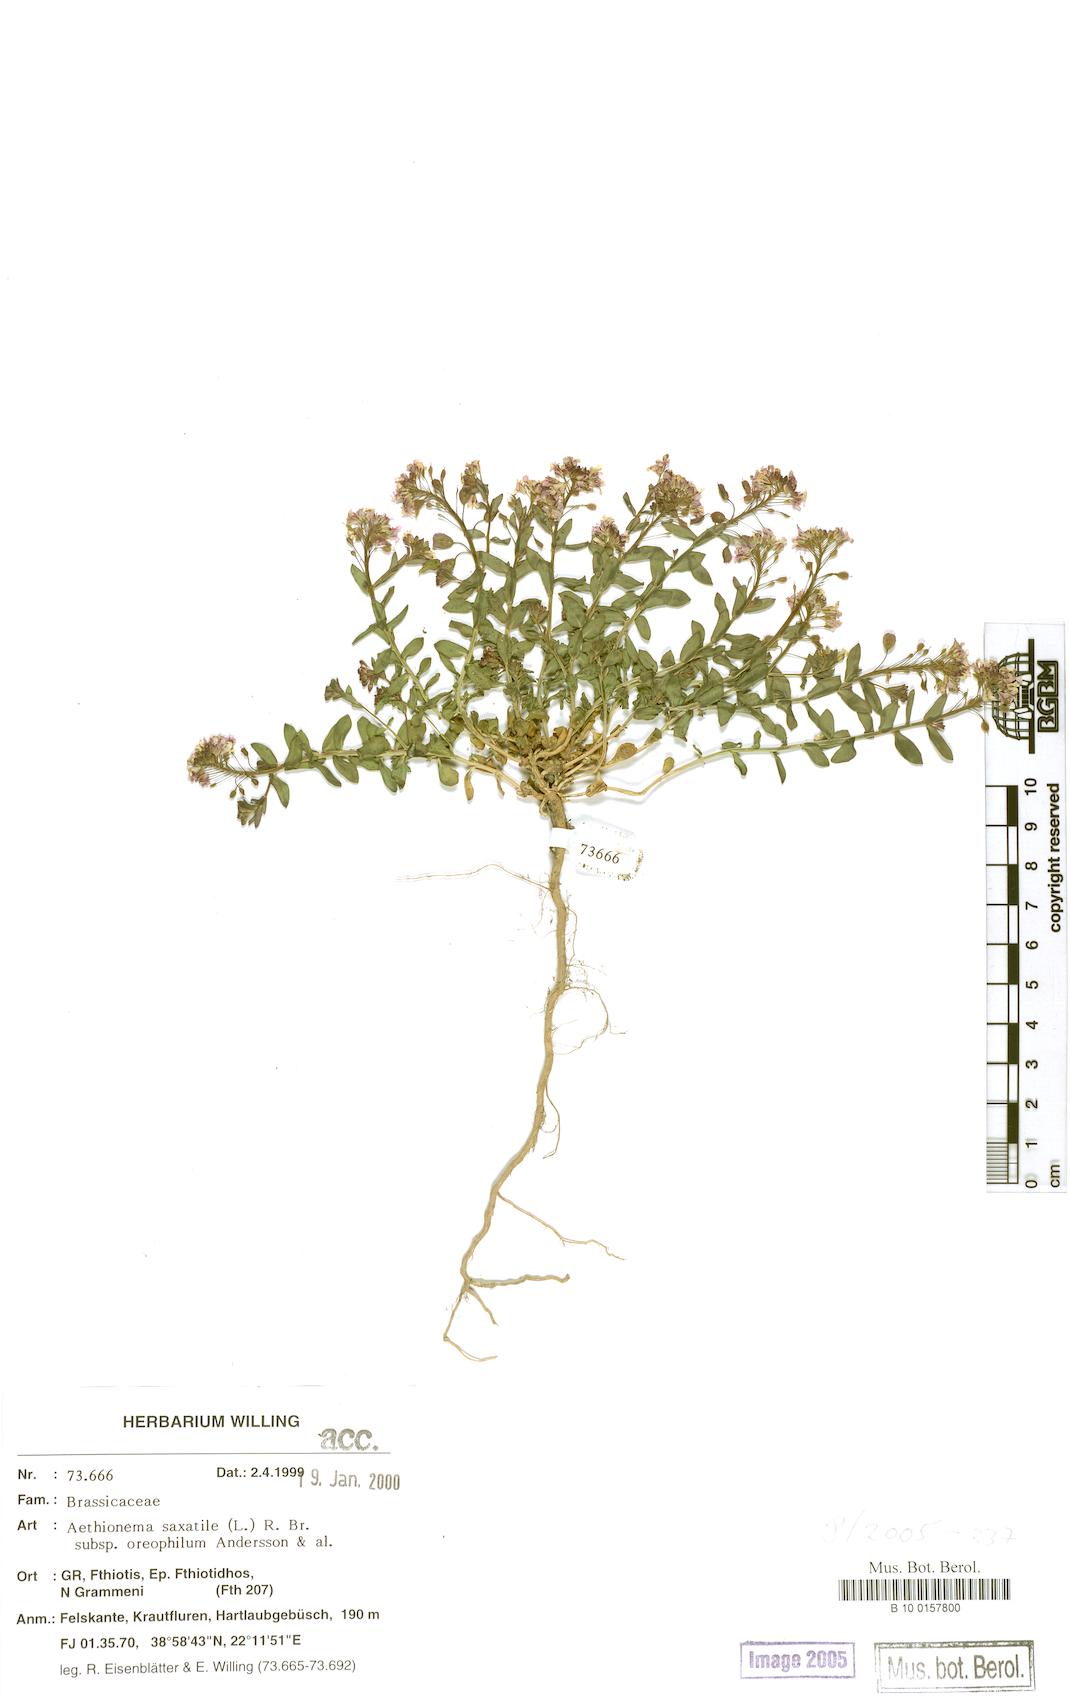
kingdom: Plantae
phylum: Tracheophyta
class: Magnoliopsida
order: Brassicales
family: Brassicaceae
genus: Aethionema
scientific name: Aethionema saxatile
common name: Burnt candytuft
